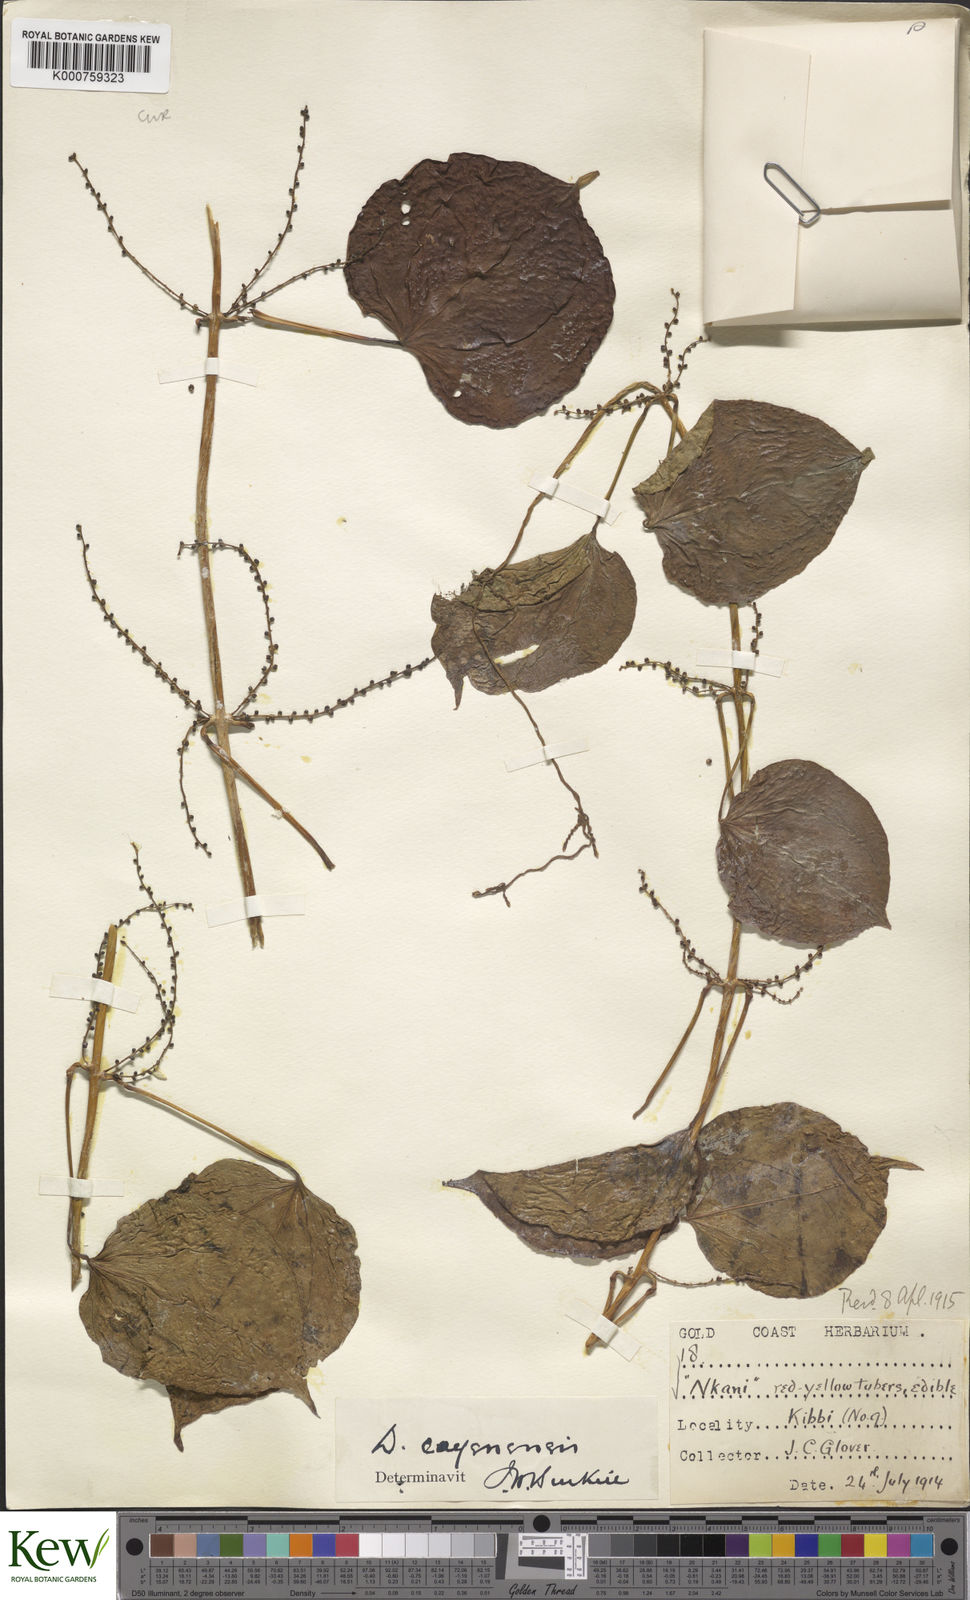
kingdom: Plantae
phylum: Tracheophyta
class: Liliopsida
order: Dioscoreales
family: Dioscoreaceae
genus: Dioscorea
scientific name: Dioscorea cayenensis
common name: Attoto yam
